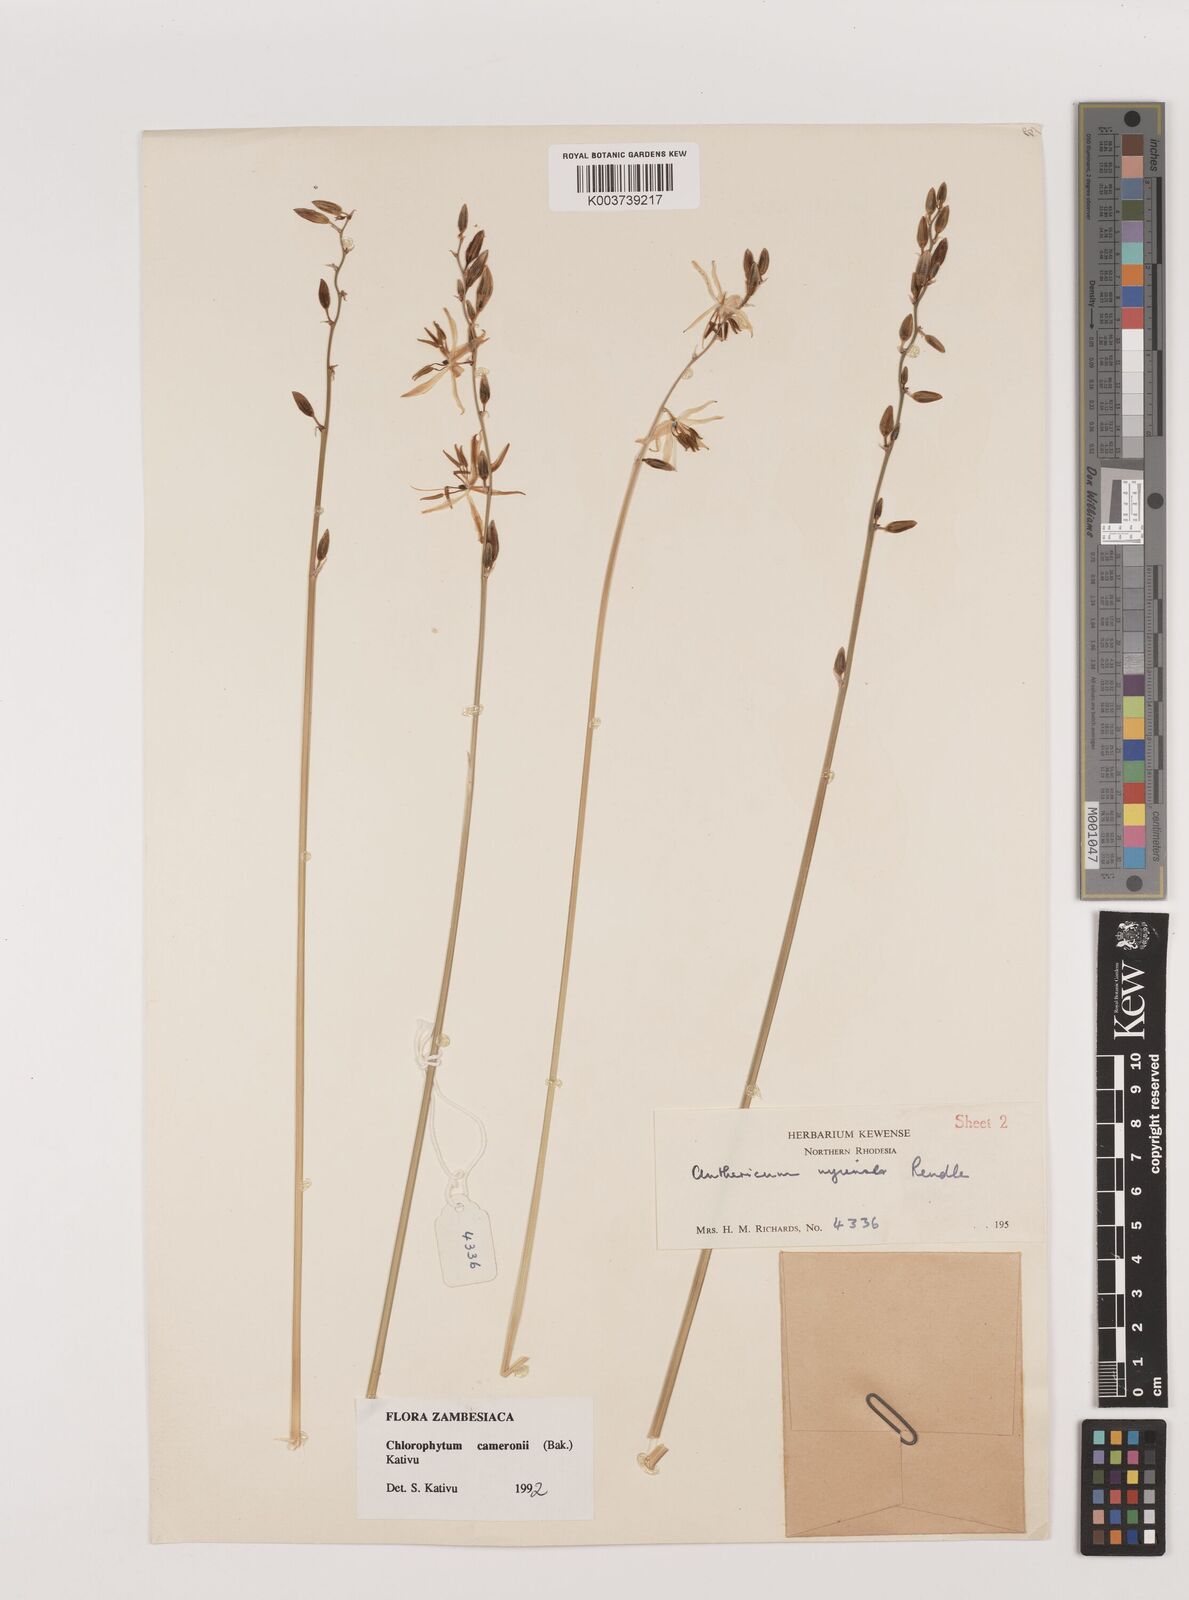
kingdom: Plantae
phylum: Tracheophyta
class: Liliopsida
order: Asparagales
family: Asparagaceae
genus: Chlorophytum
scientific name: Chlorophytum cameronii
